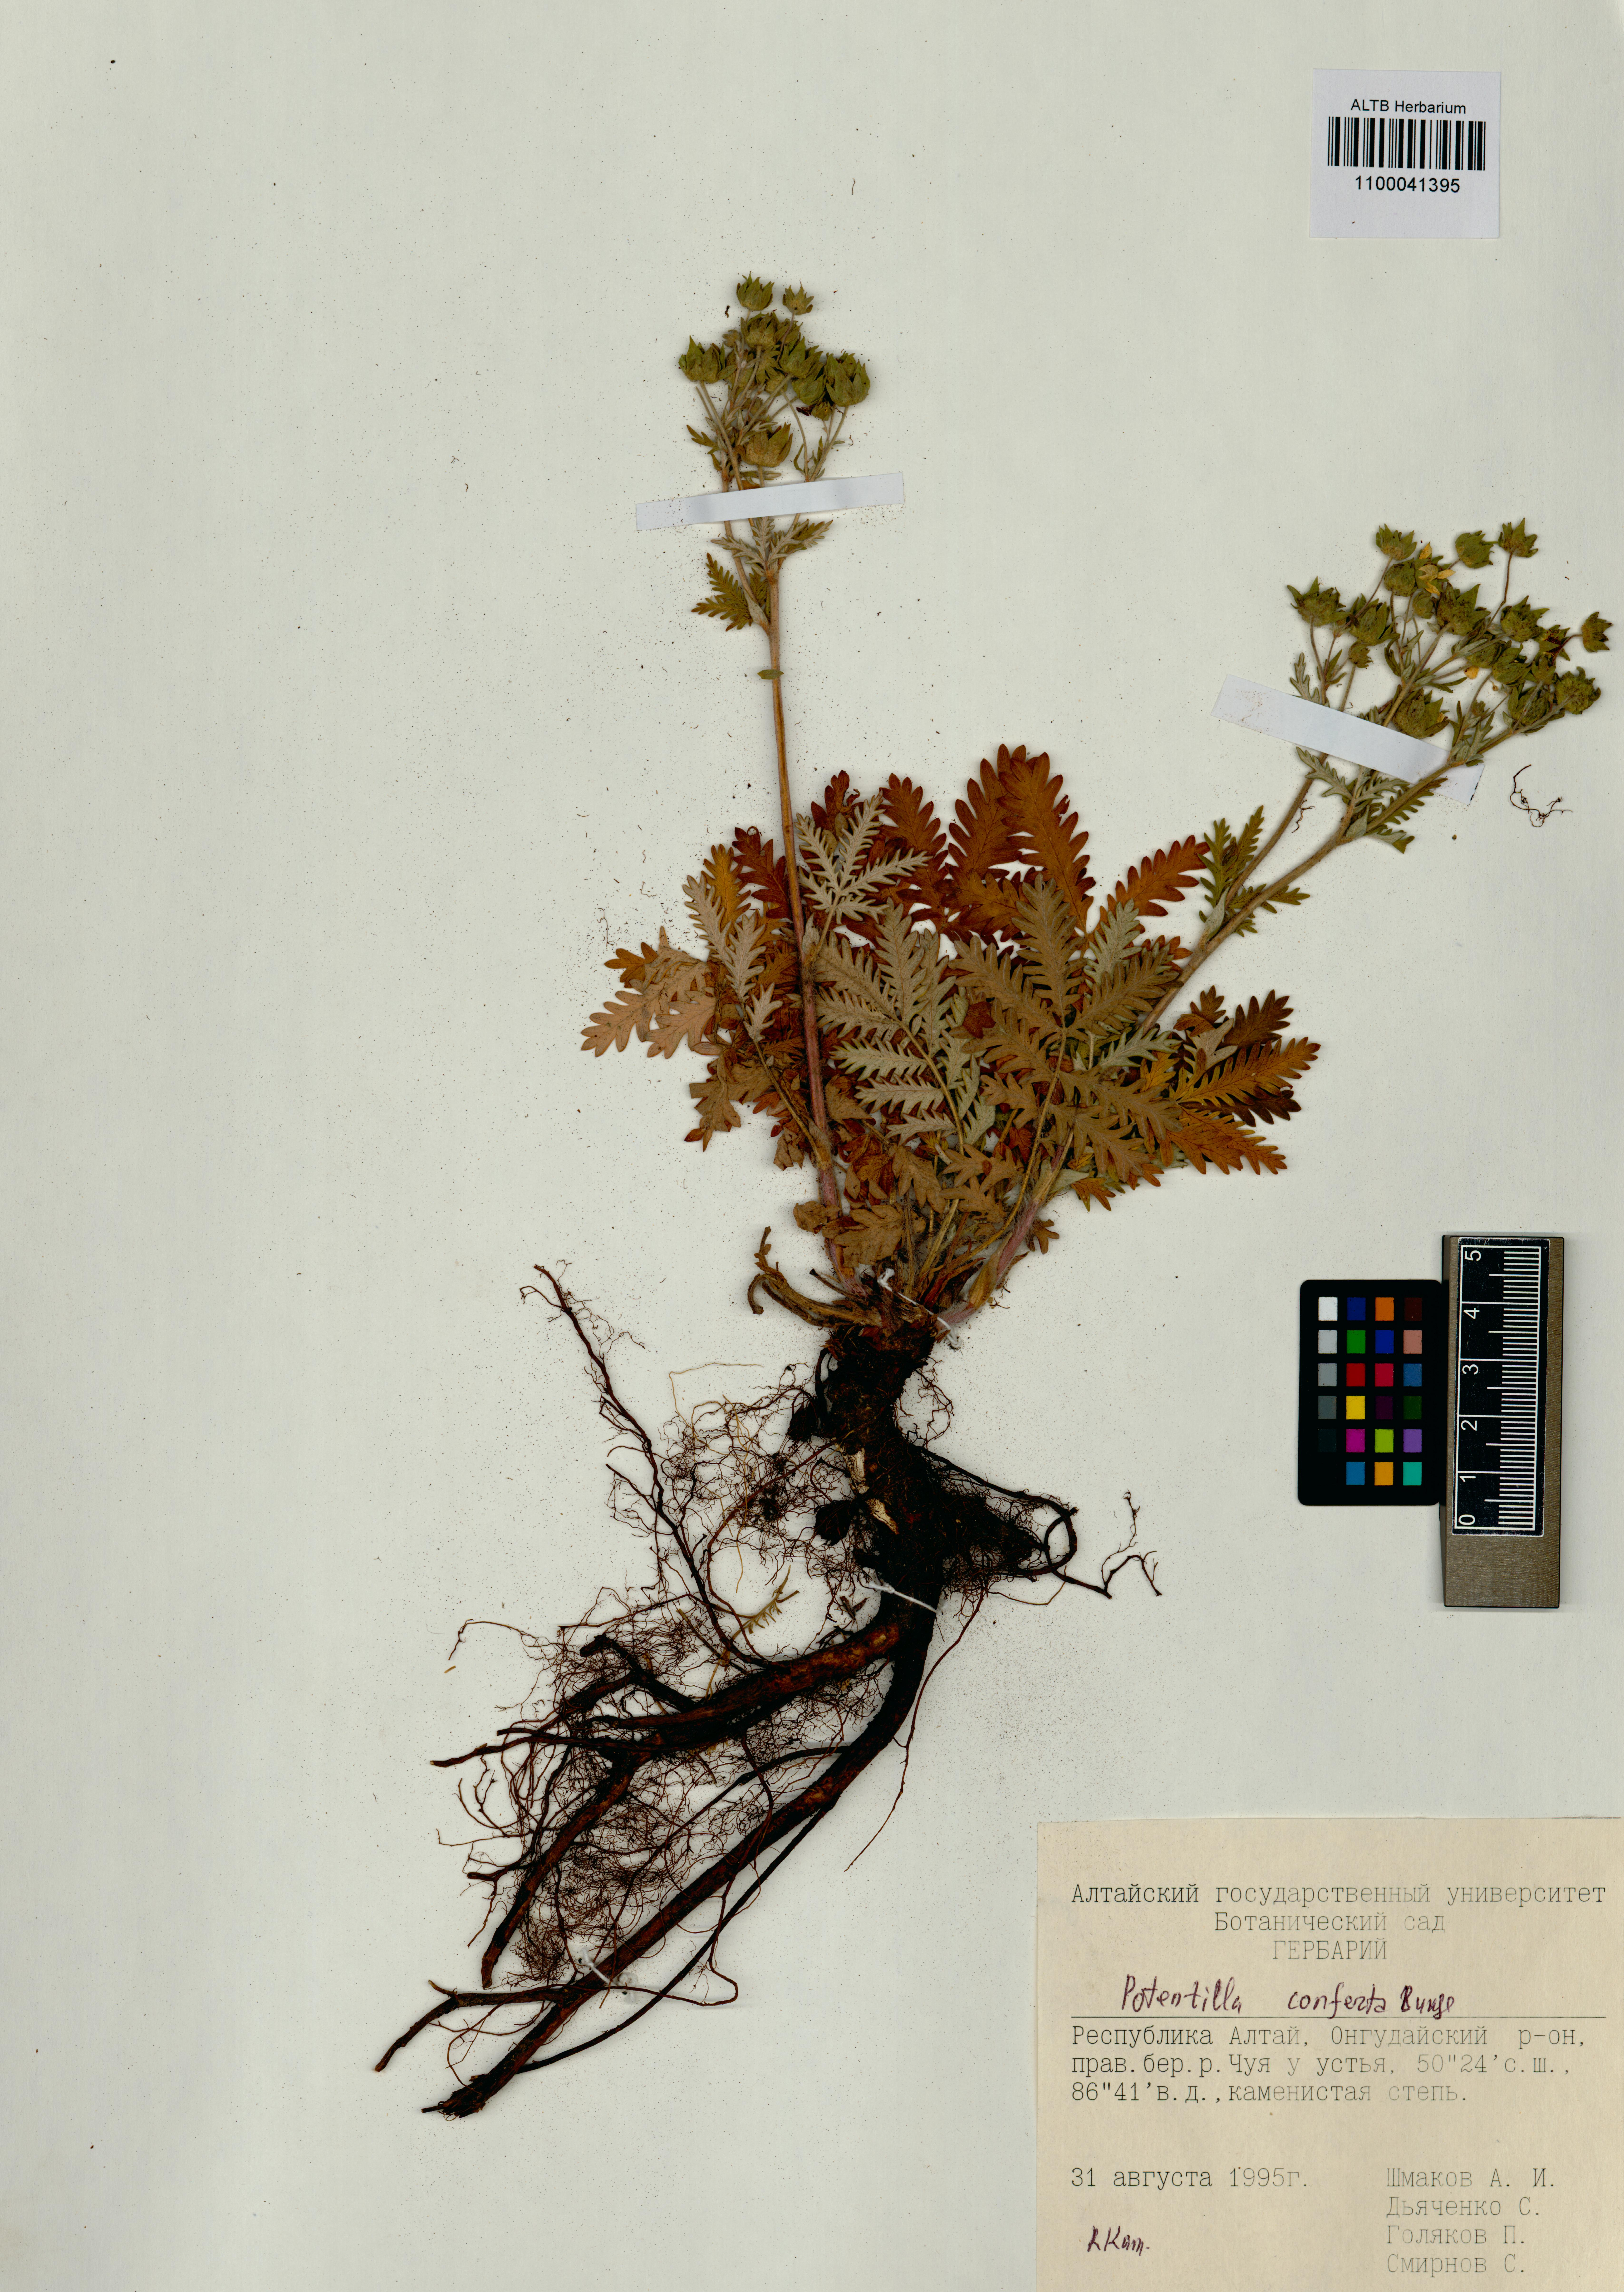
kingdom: Plantae
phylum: Tracheophyta
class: Magnoliopsida
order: Rosales
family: Rosaceae
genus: Potentilla
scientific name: Potentilla conferta
